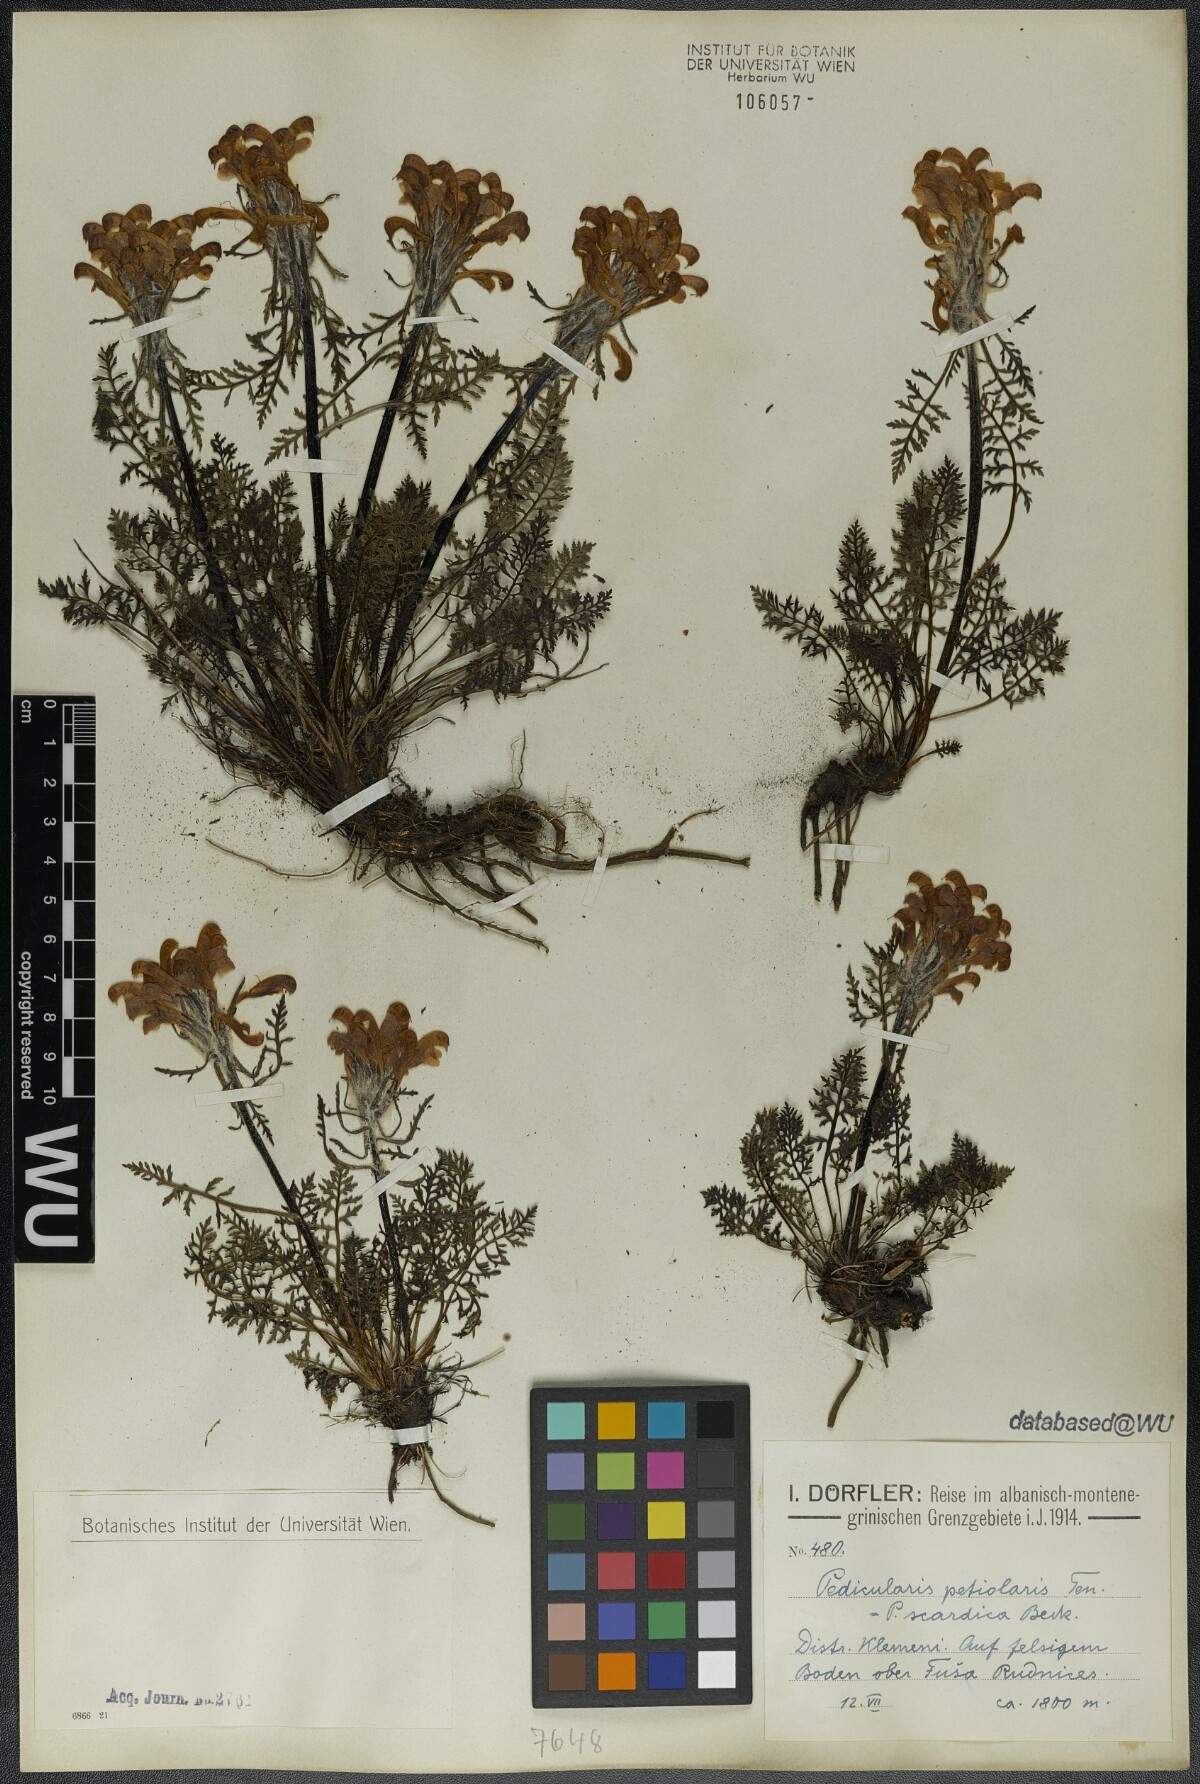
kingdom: Plantae
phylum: Tracheophyta
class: Magnoliopsida
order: Lamiales
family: Orobanchaceae
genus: Pedicularis
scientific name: Pedicularis petiolaris
